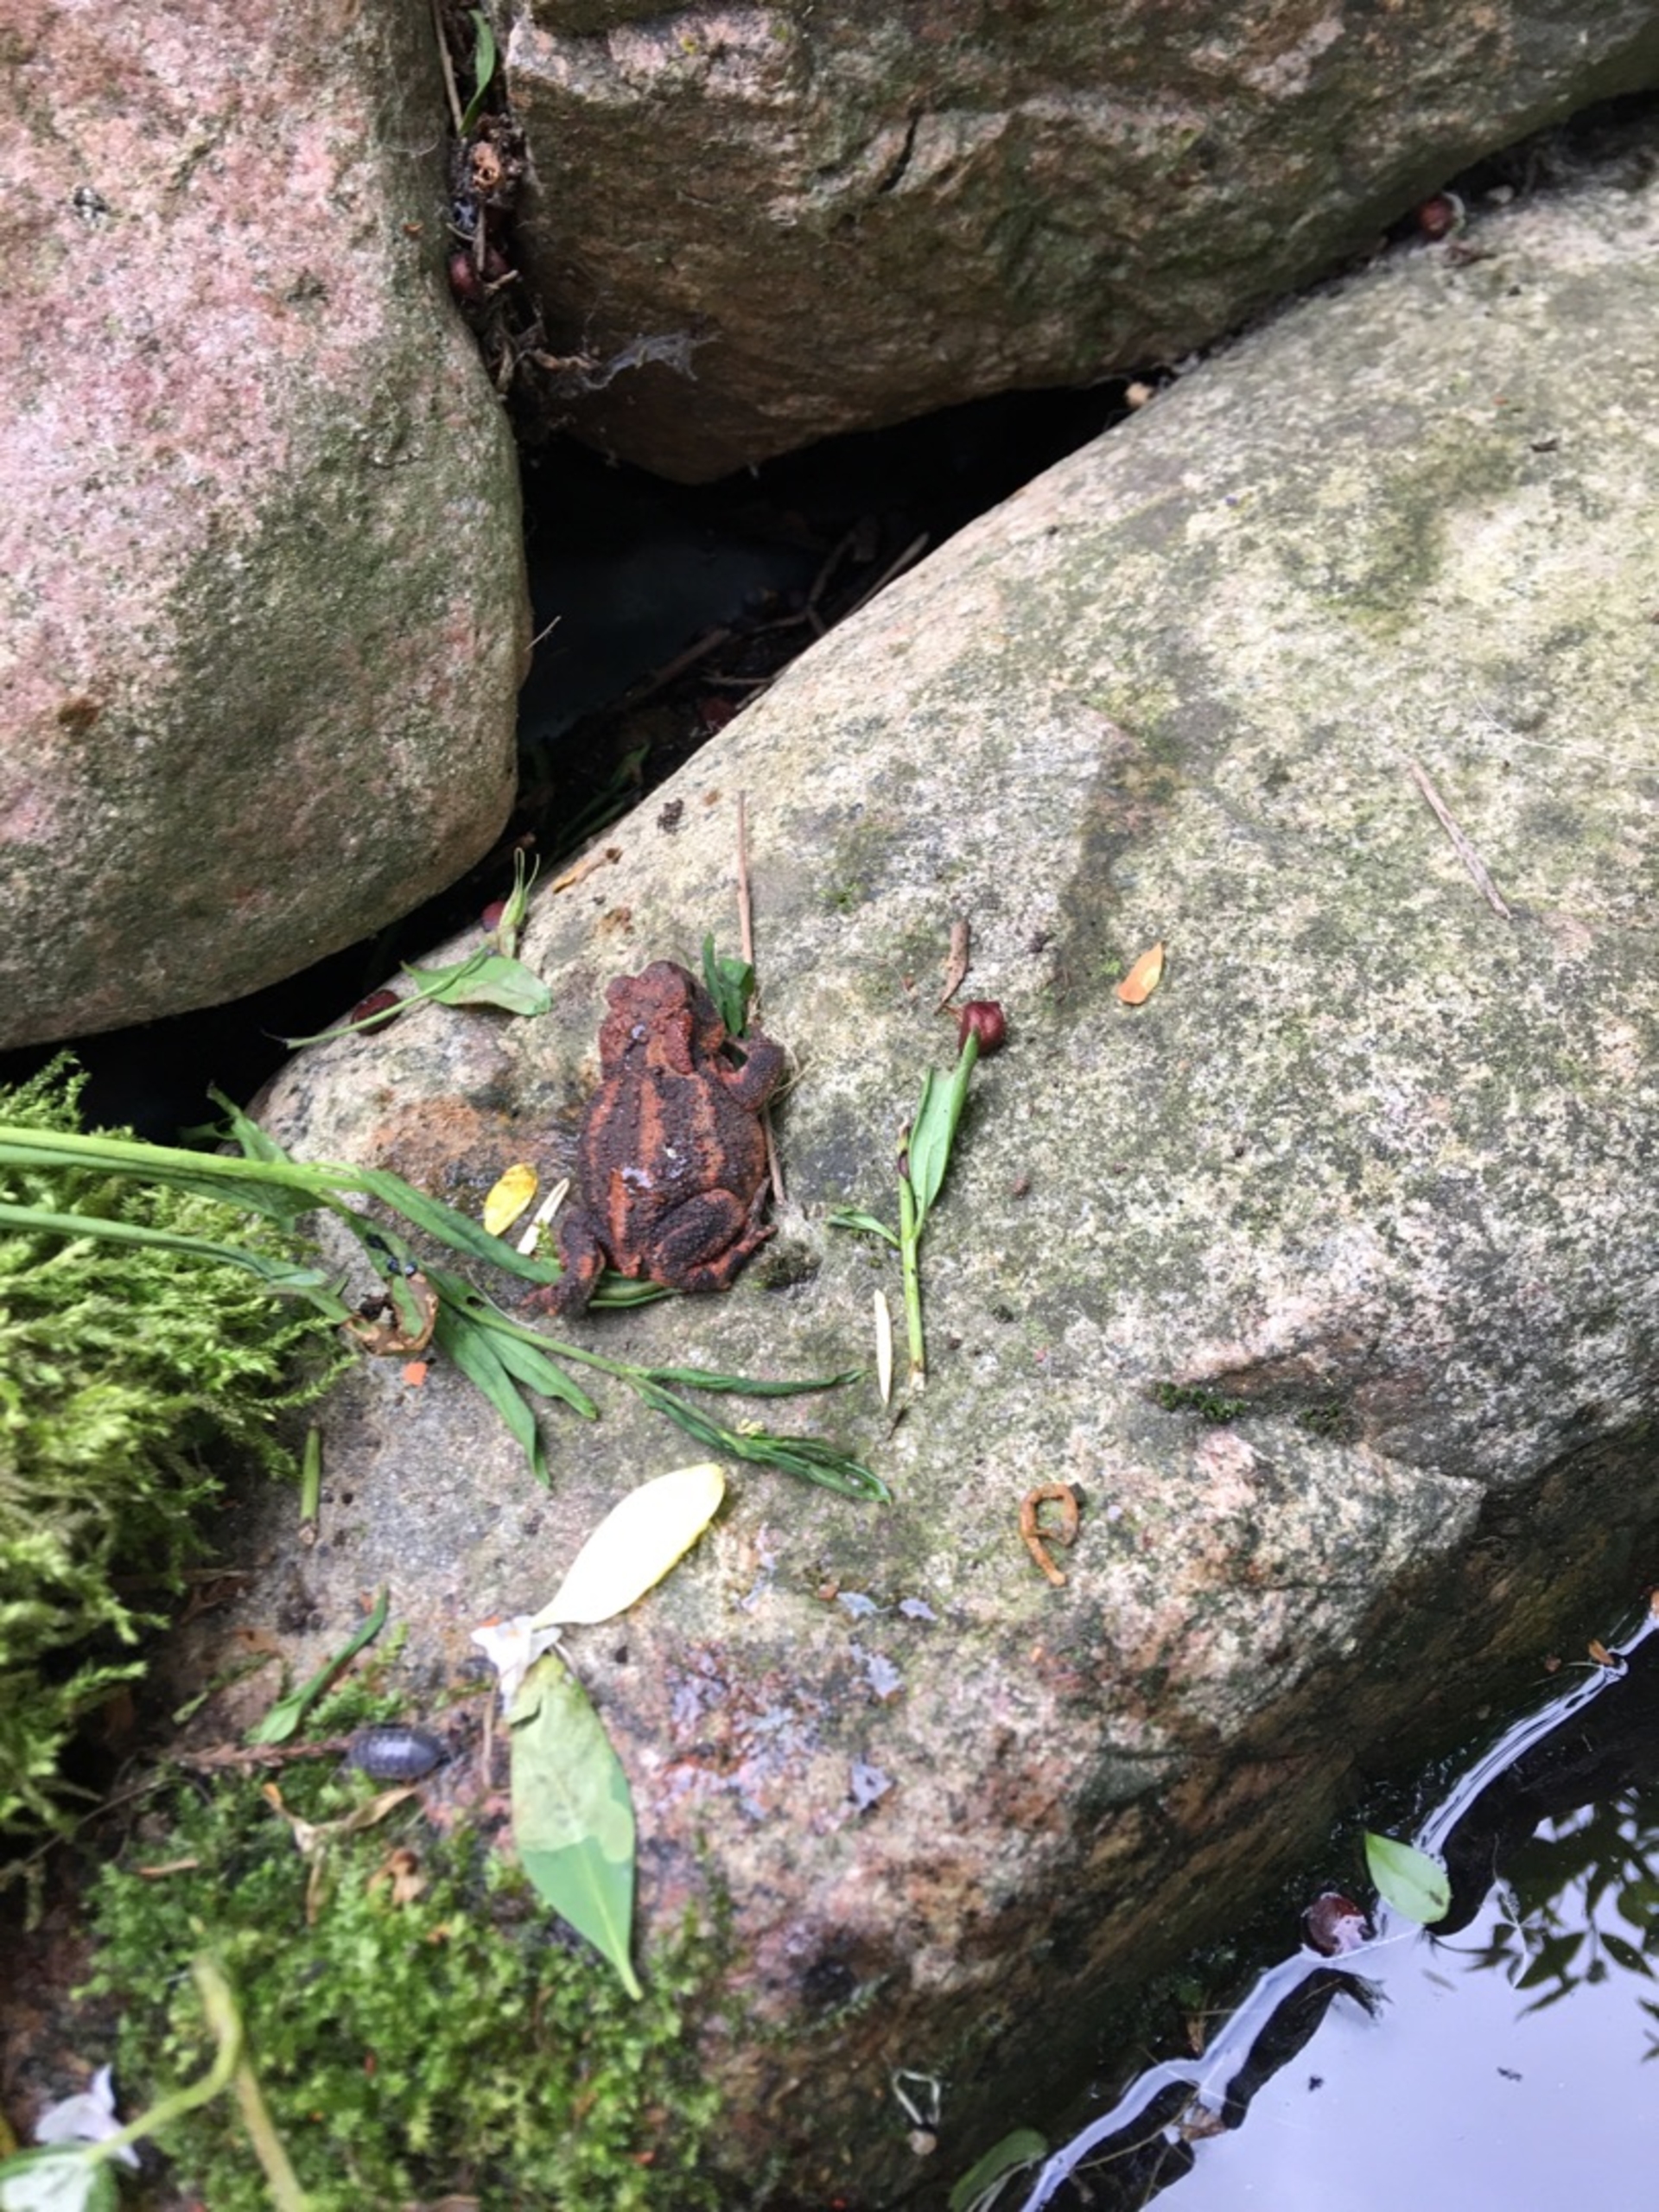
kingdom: Animalia
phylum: Chordata
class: Amphibia
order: Anura
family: Bufonidae
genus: Bufo
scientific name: Bufo bufo
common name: Skrubtudse
